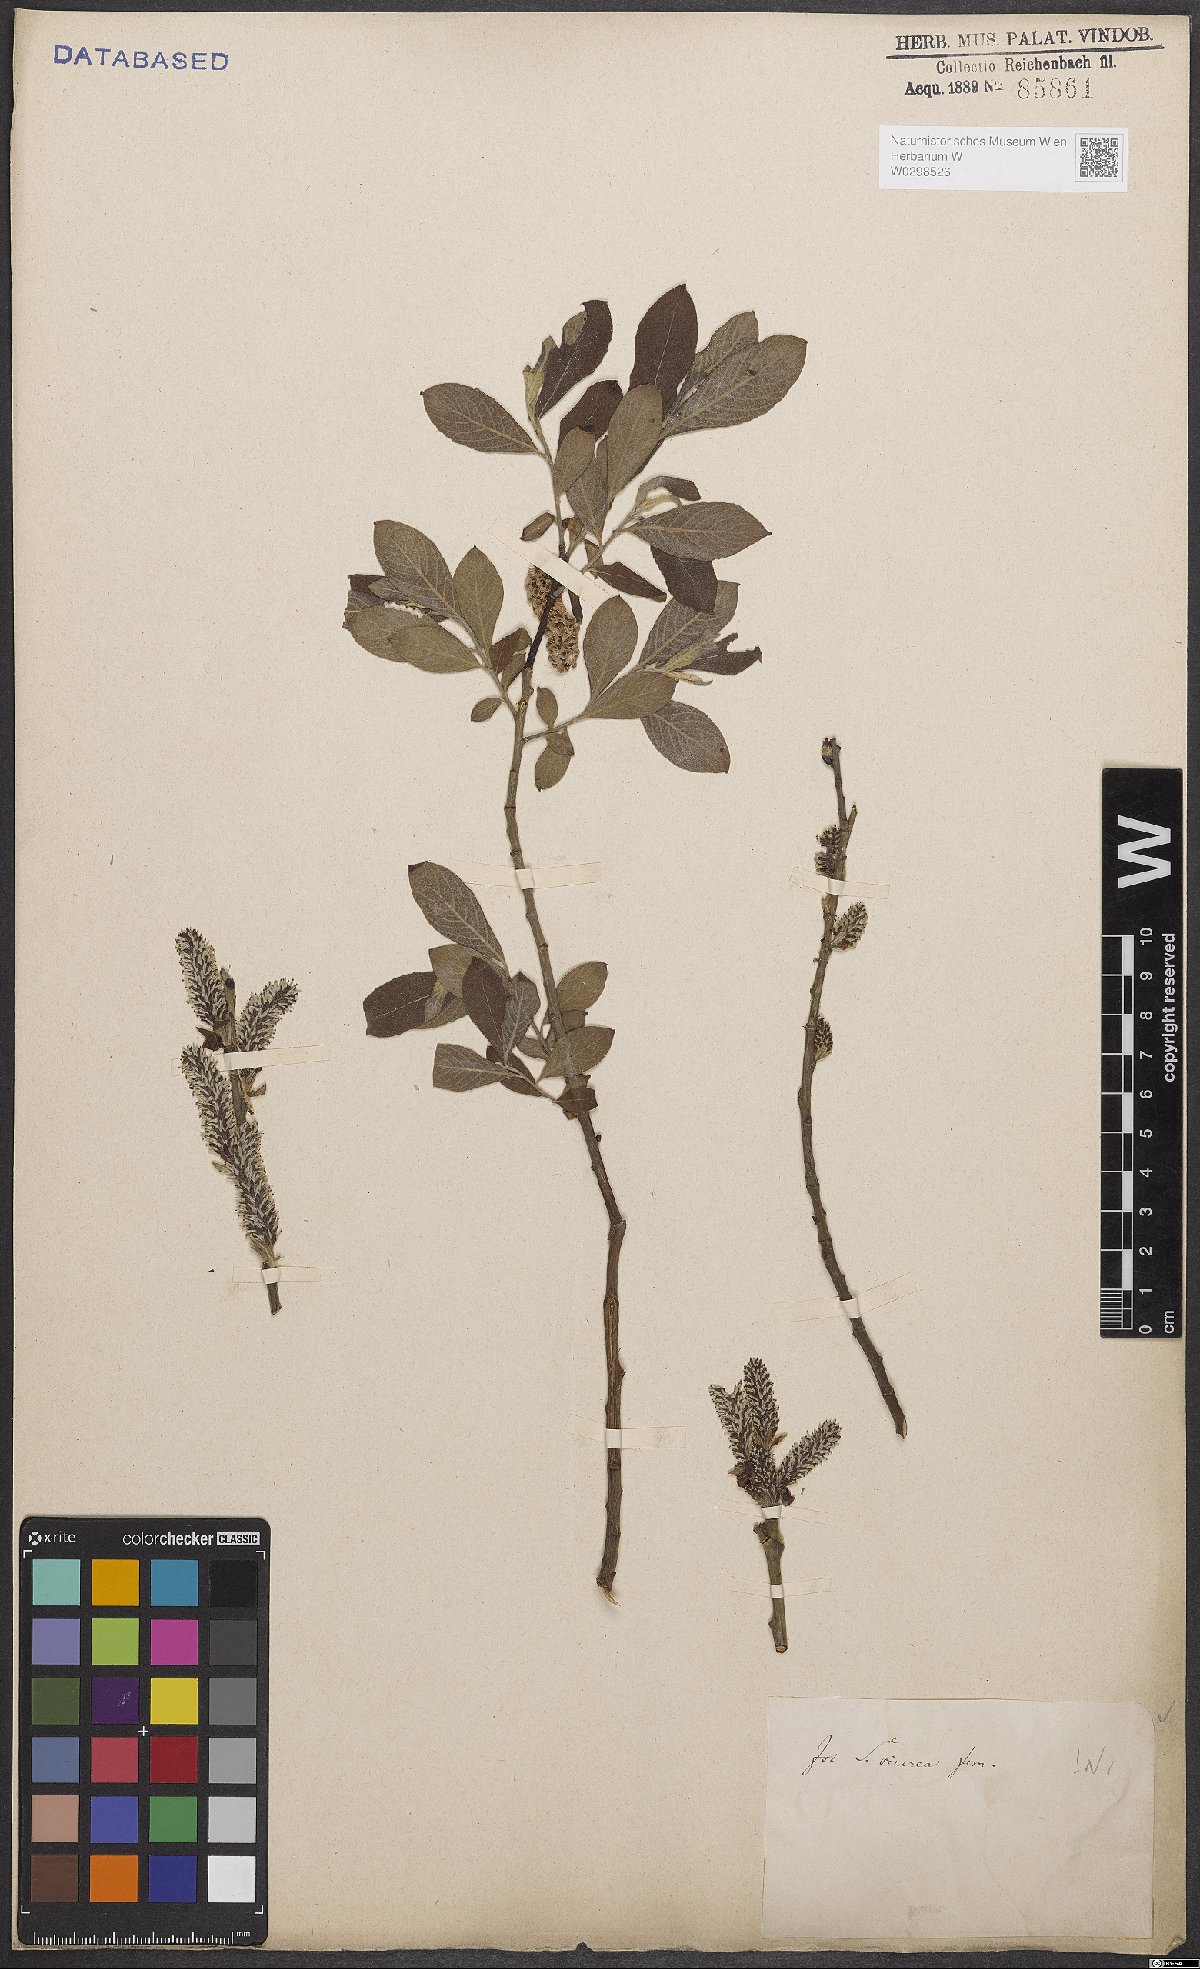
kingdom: Plantae
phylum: Tracheophyta
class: Magnoliopsida
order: Malpighiales
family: Salicaceae
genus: Salix
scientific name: Salix cinerea
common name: Common sallow
